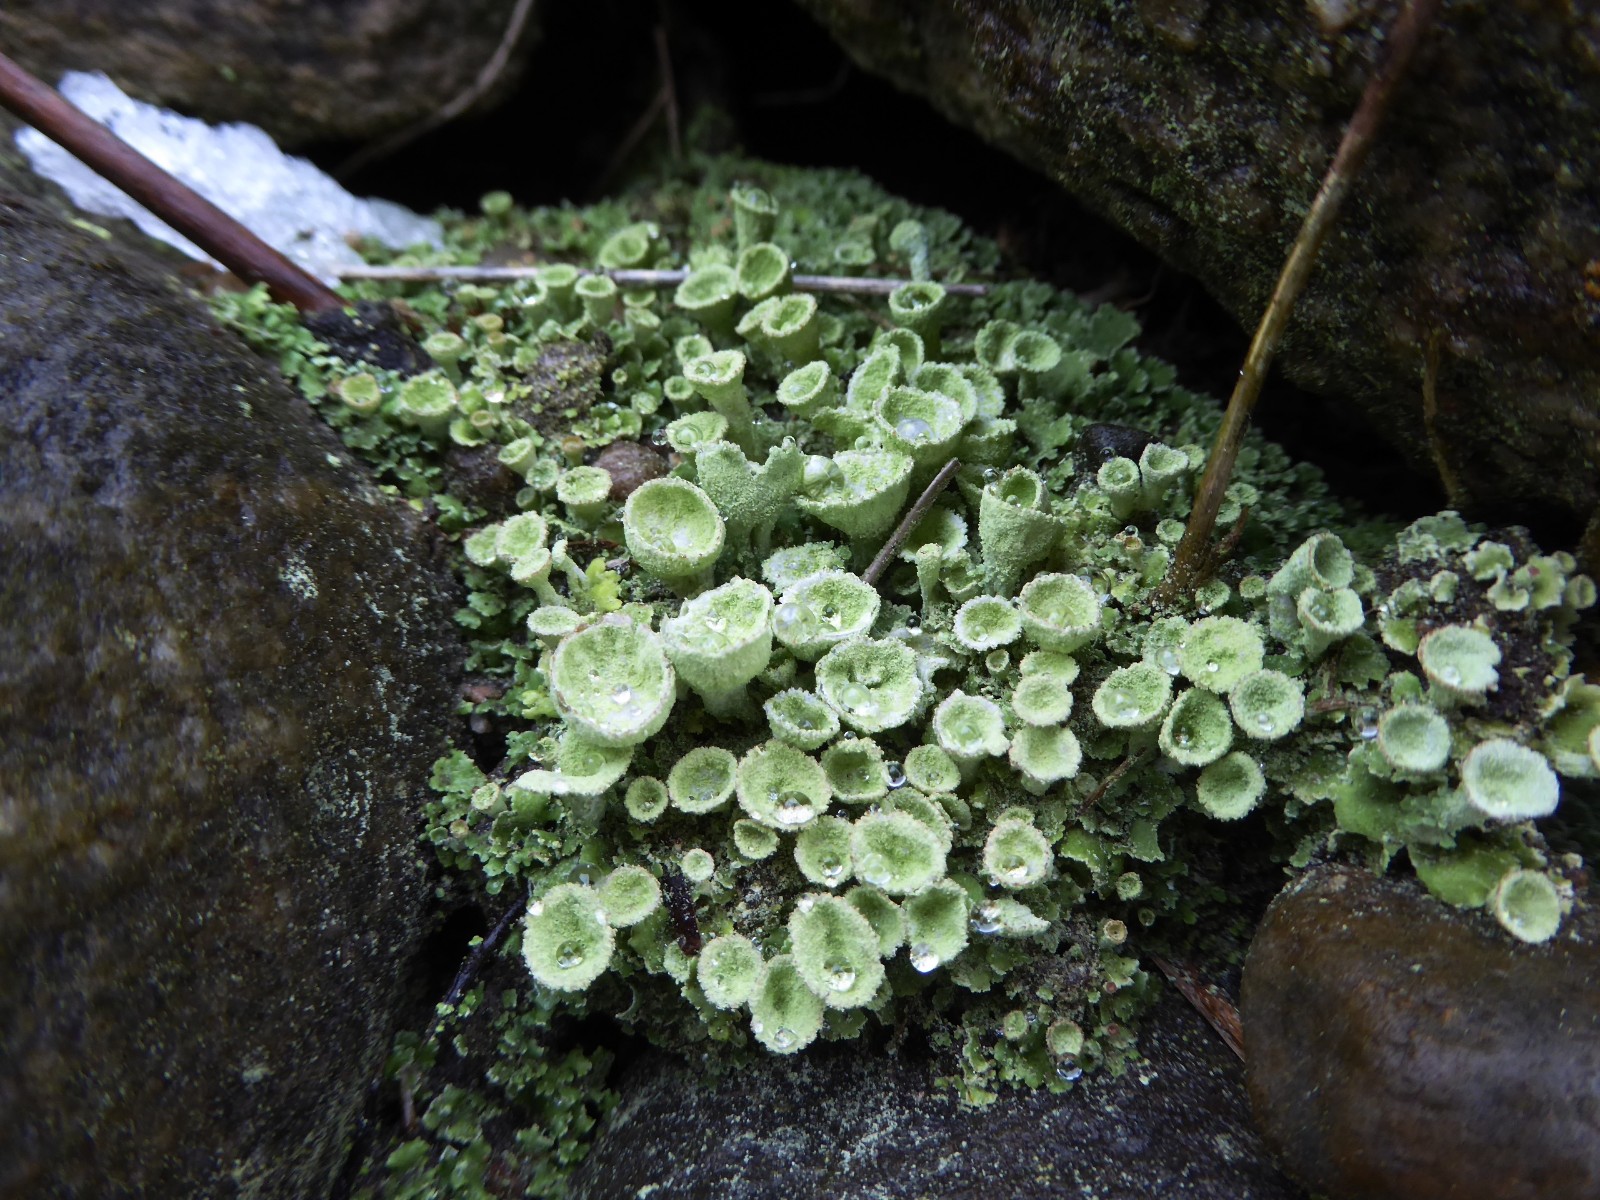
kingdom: Fungi
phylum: Ascomycota
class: Lecanoromycetes
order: Lecanorales
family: Cladoniaceae
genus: Cladonia
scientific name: Cladonia humilis
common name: lav bægerlav
